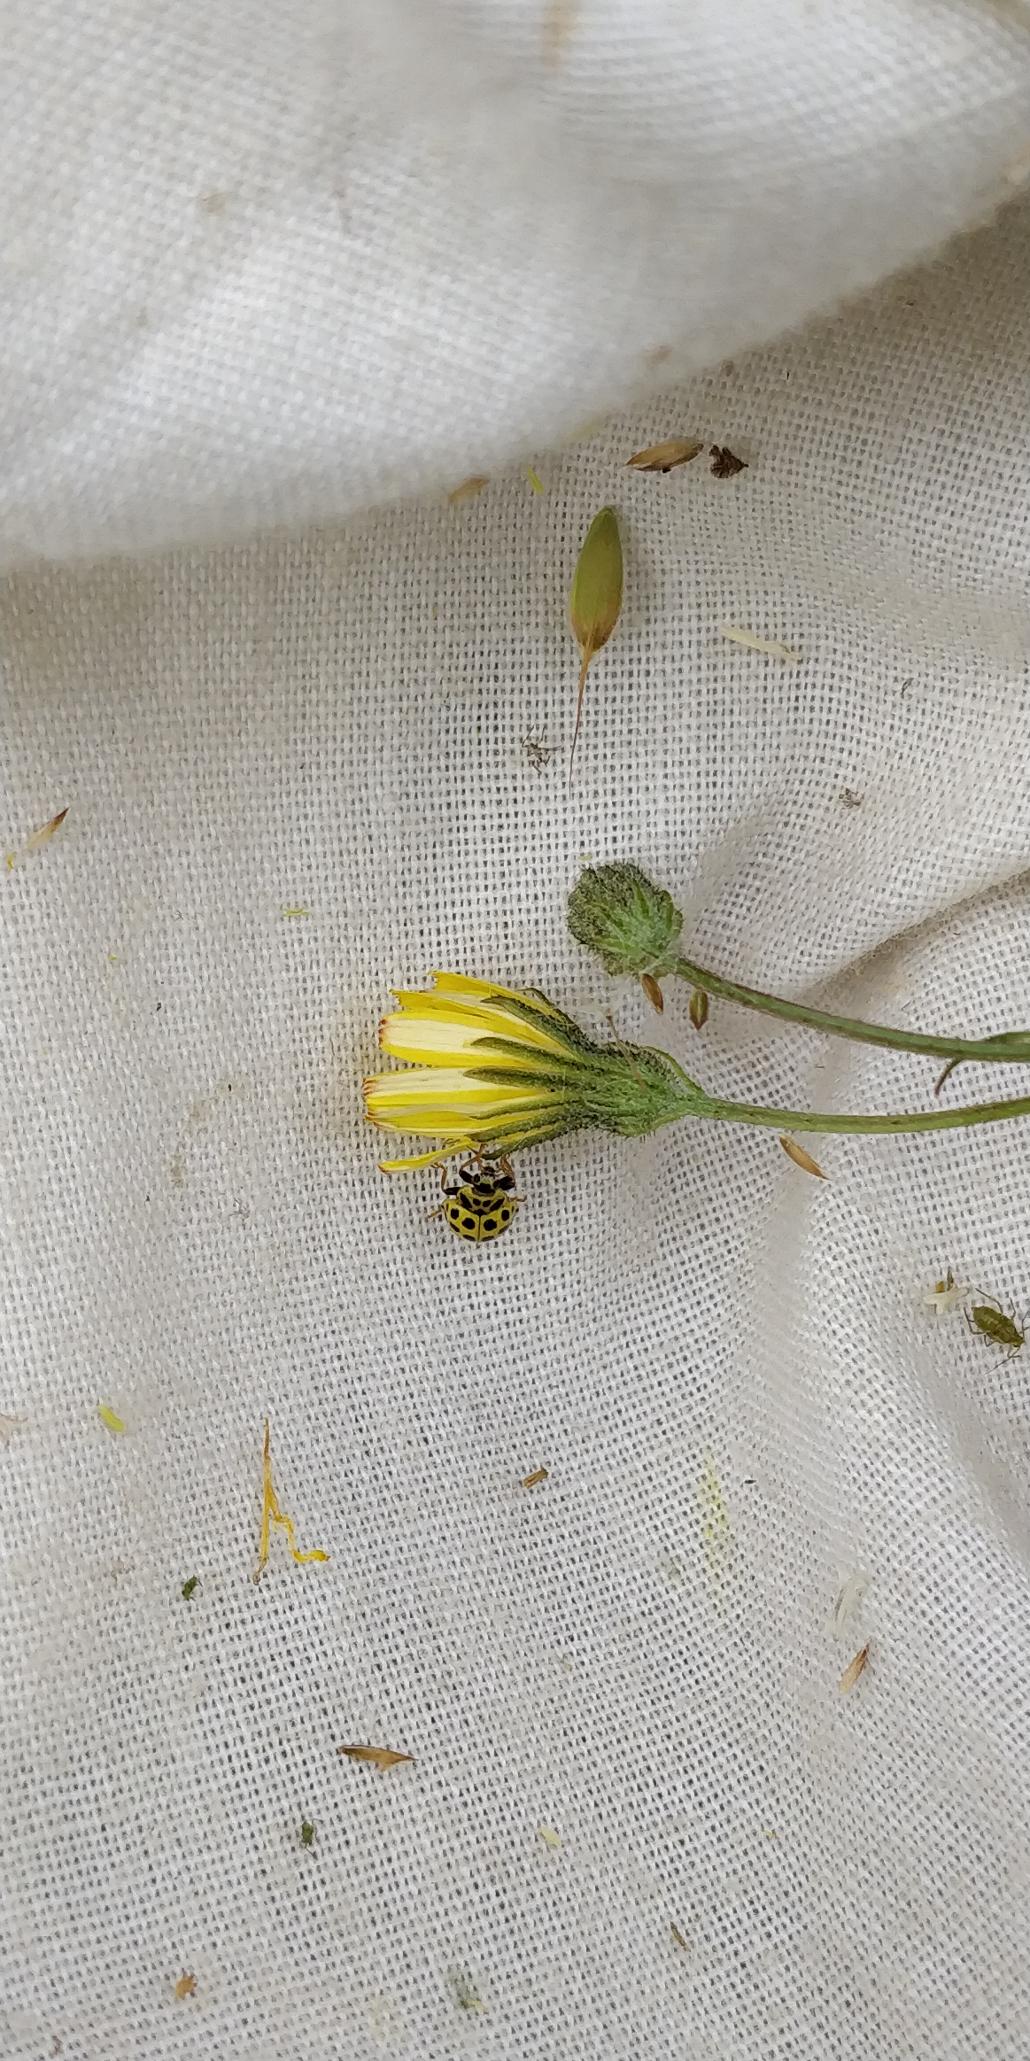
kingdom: Animalia
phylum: Arthropoda
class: Insecta
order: Coleoptera
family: Coccinellidae
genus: Psyllobora
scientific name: Psyllobora vigintiduopunctata
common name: Toogtyveplettet mariehøne
